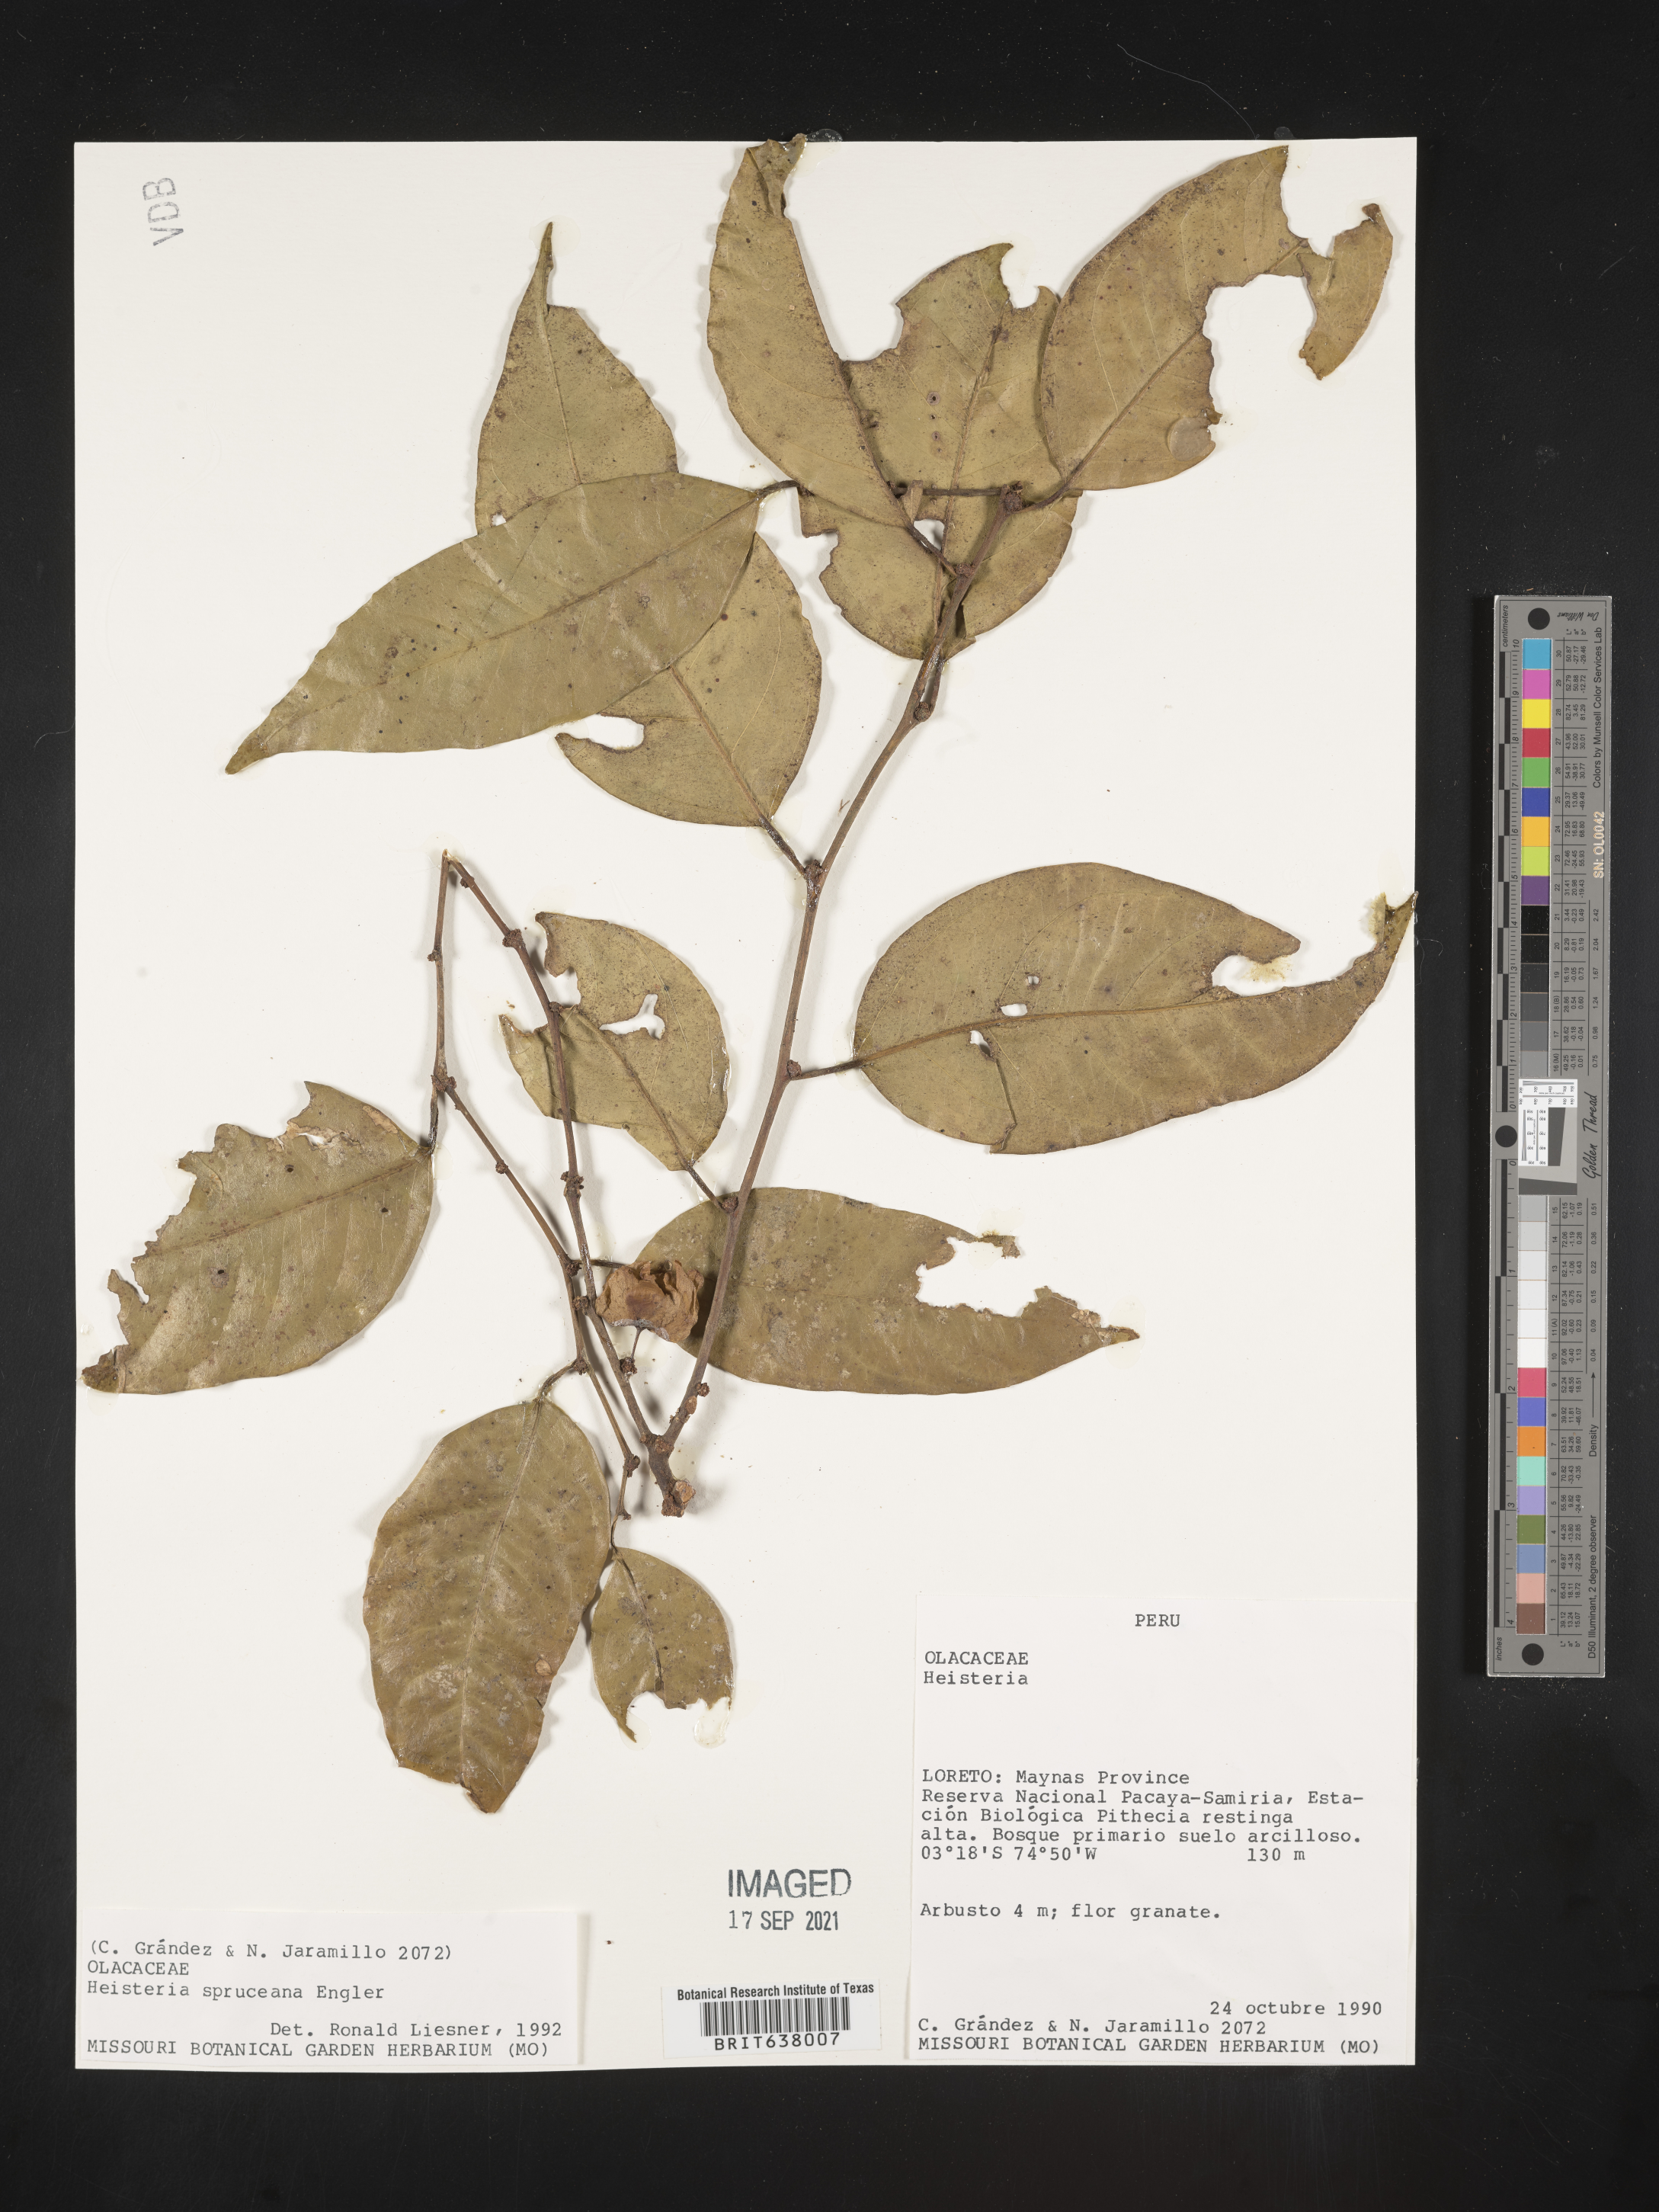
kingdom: Plantae
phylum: Tracheophyta
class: Magnoliopsida
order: Santalales
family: Erythropalaceae
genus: Heisteria
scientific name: Heisteria
